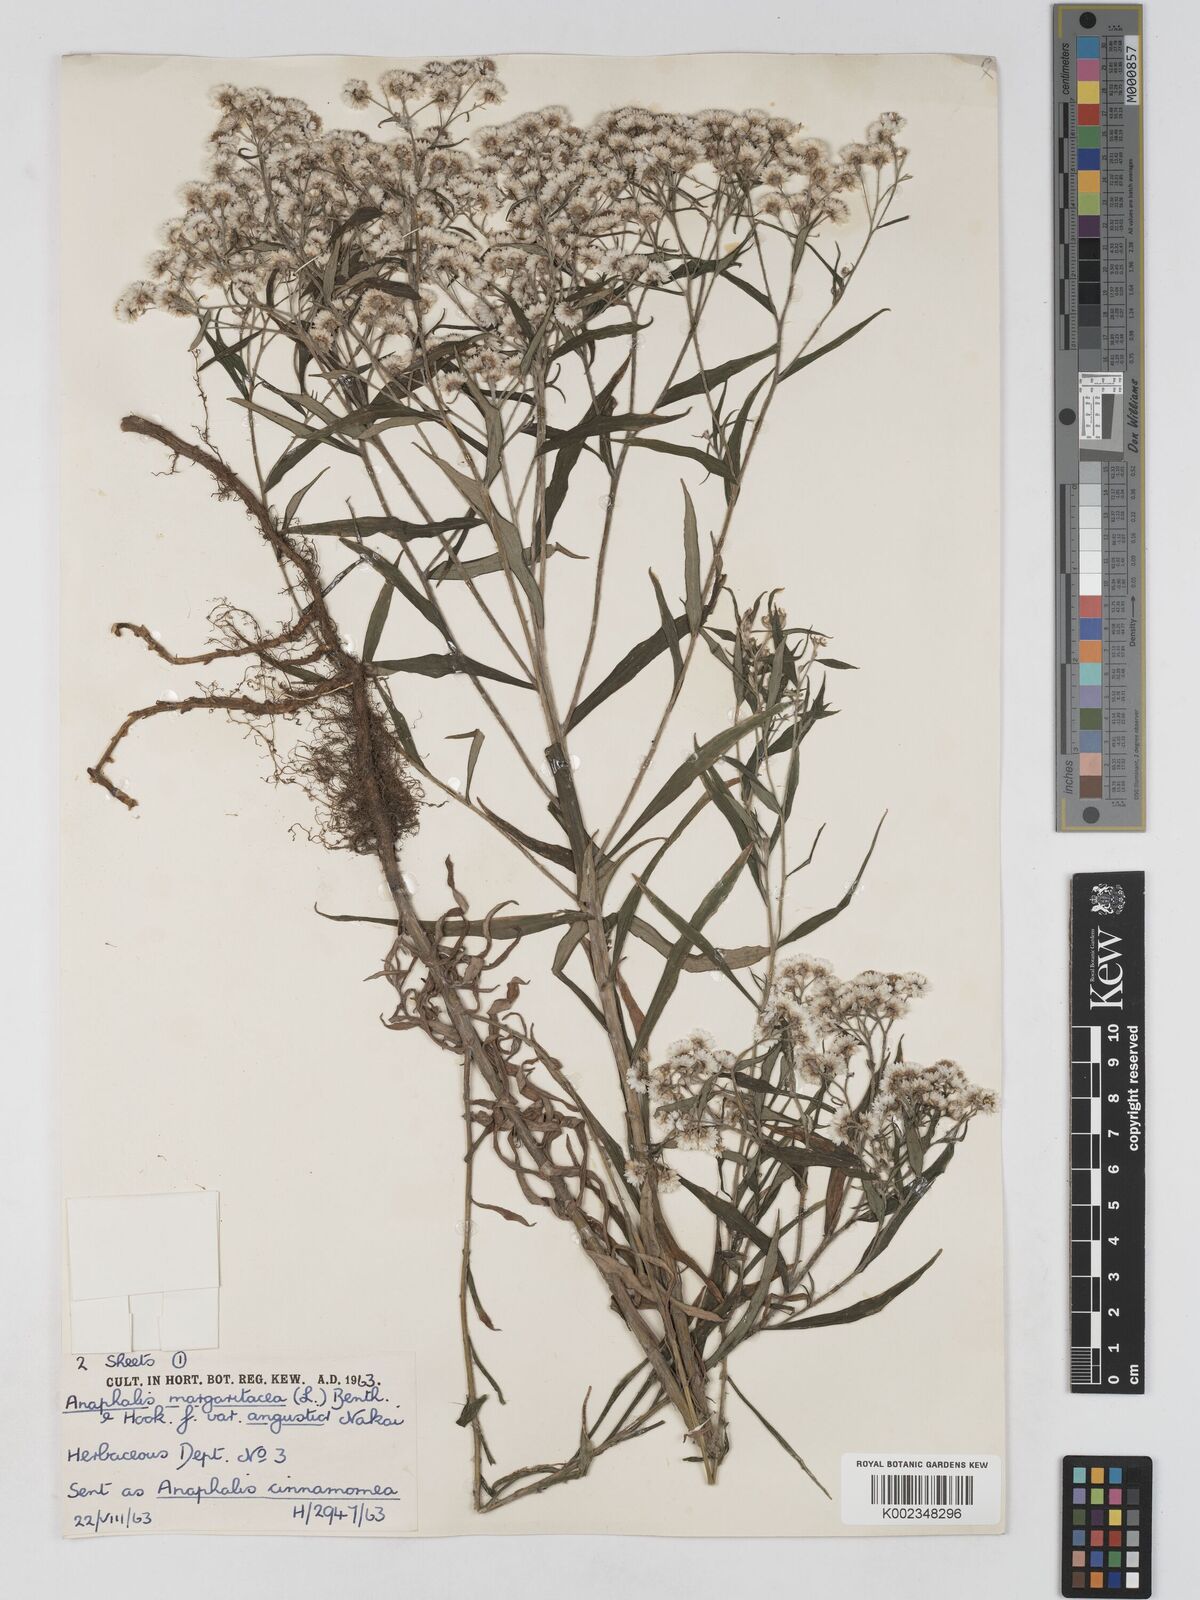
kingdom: Plantae
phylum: Tracheophyta
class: Magnoliopsida
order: Asterales
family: Asteraceae
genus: Anaphalis
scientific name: Anaphalis margaritacea
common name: Pearly everlasting
